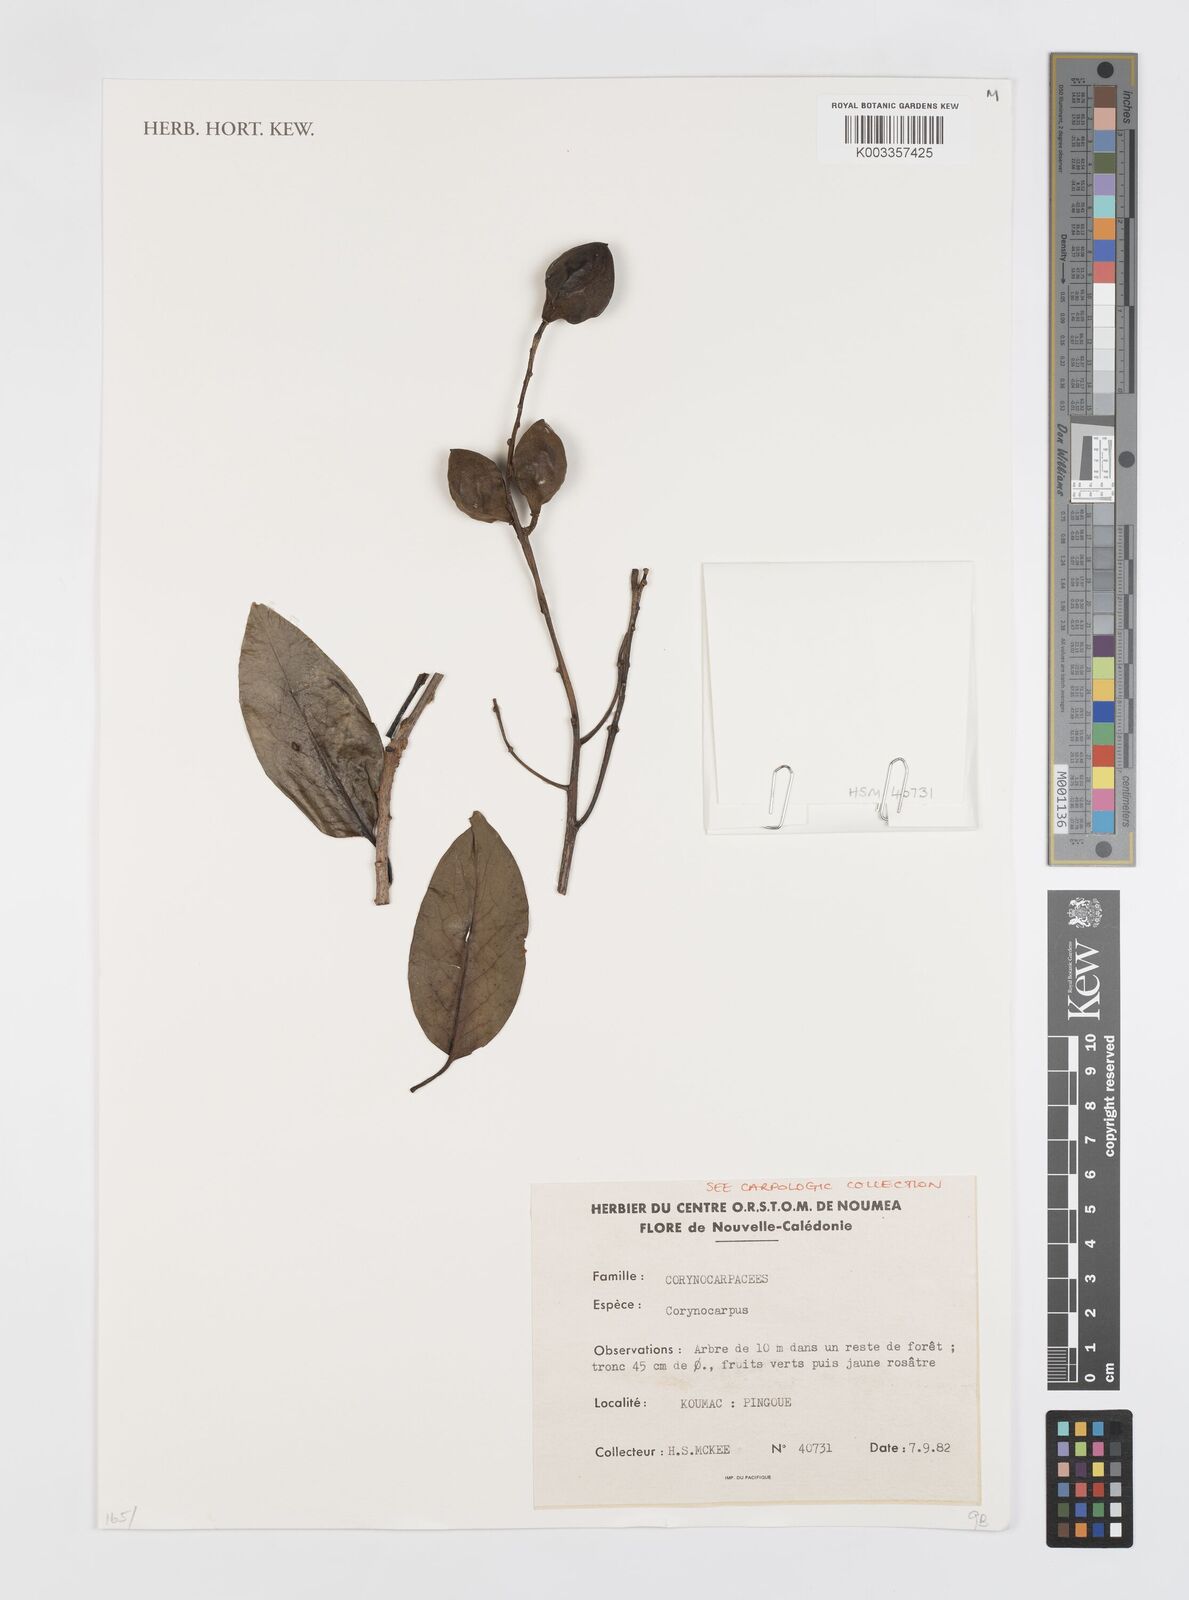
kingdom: Plantae
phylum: Tracheophyta
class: Magnoliopsida
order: Cucurbitales
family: Corynocarpaceae
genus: Corynocarpus
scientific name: Corynocarpus
